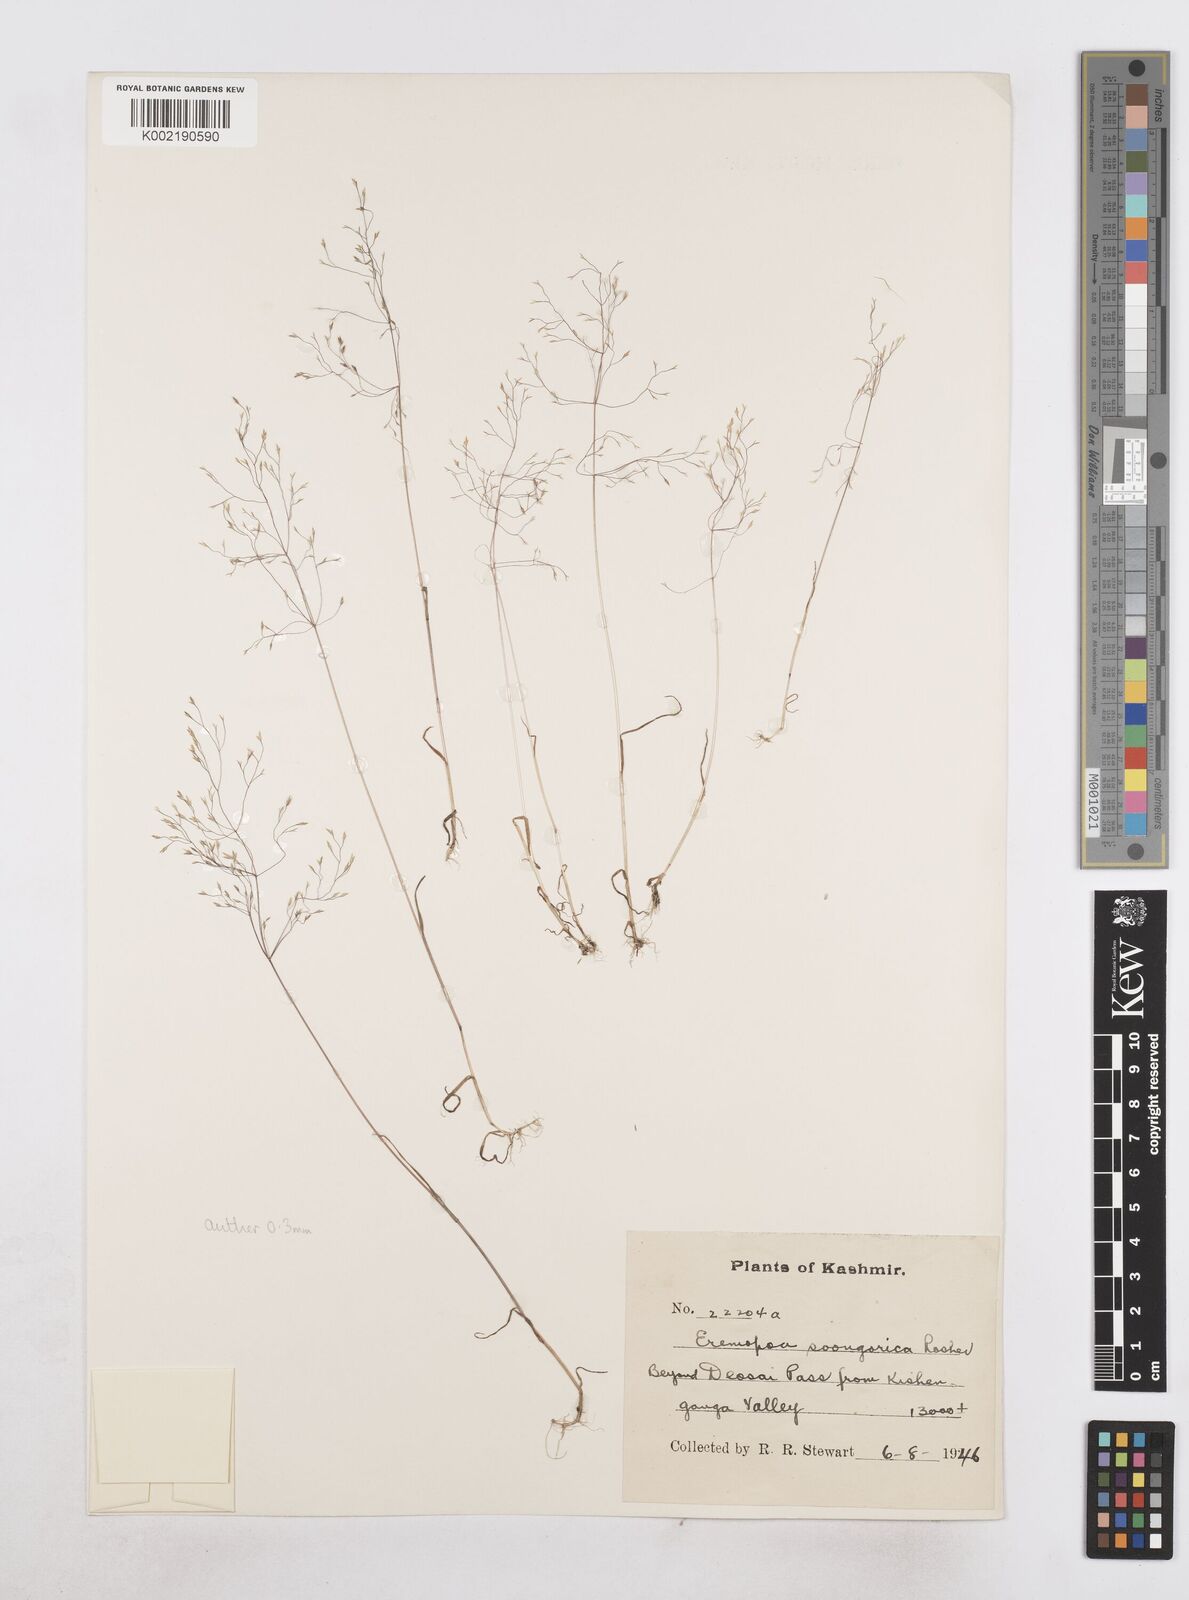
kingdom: Plantae
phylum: Tracheophyta
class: Liliopsida
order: Poales
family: Poaceae
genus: Poa
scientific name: Poa diaphora
